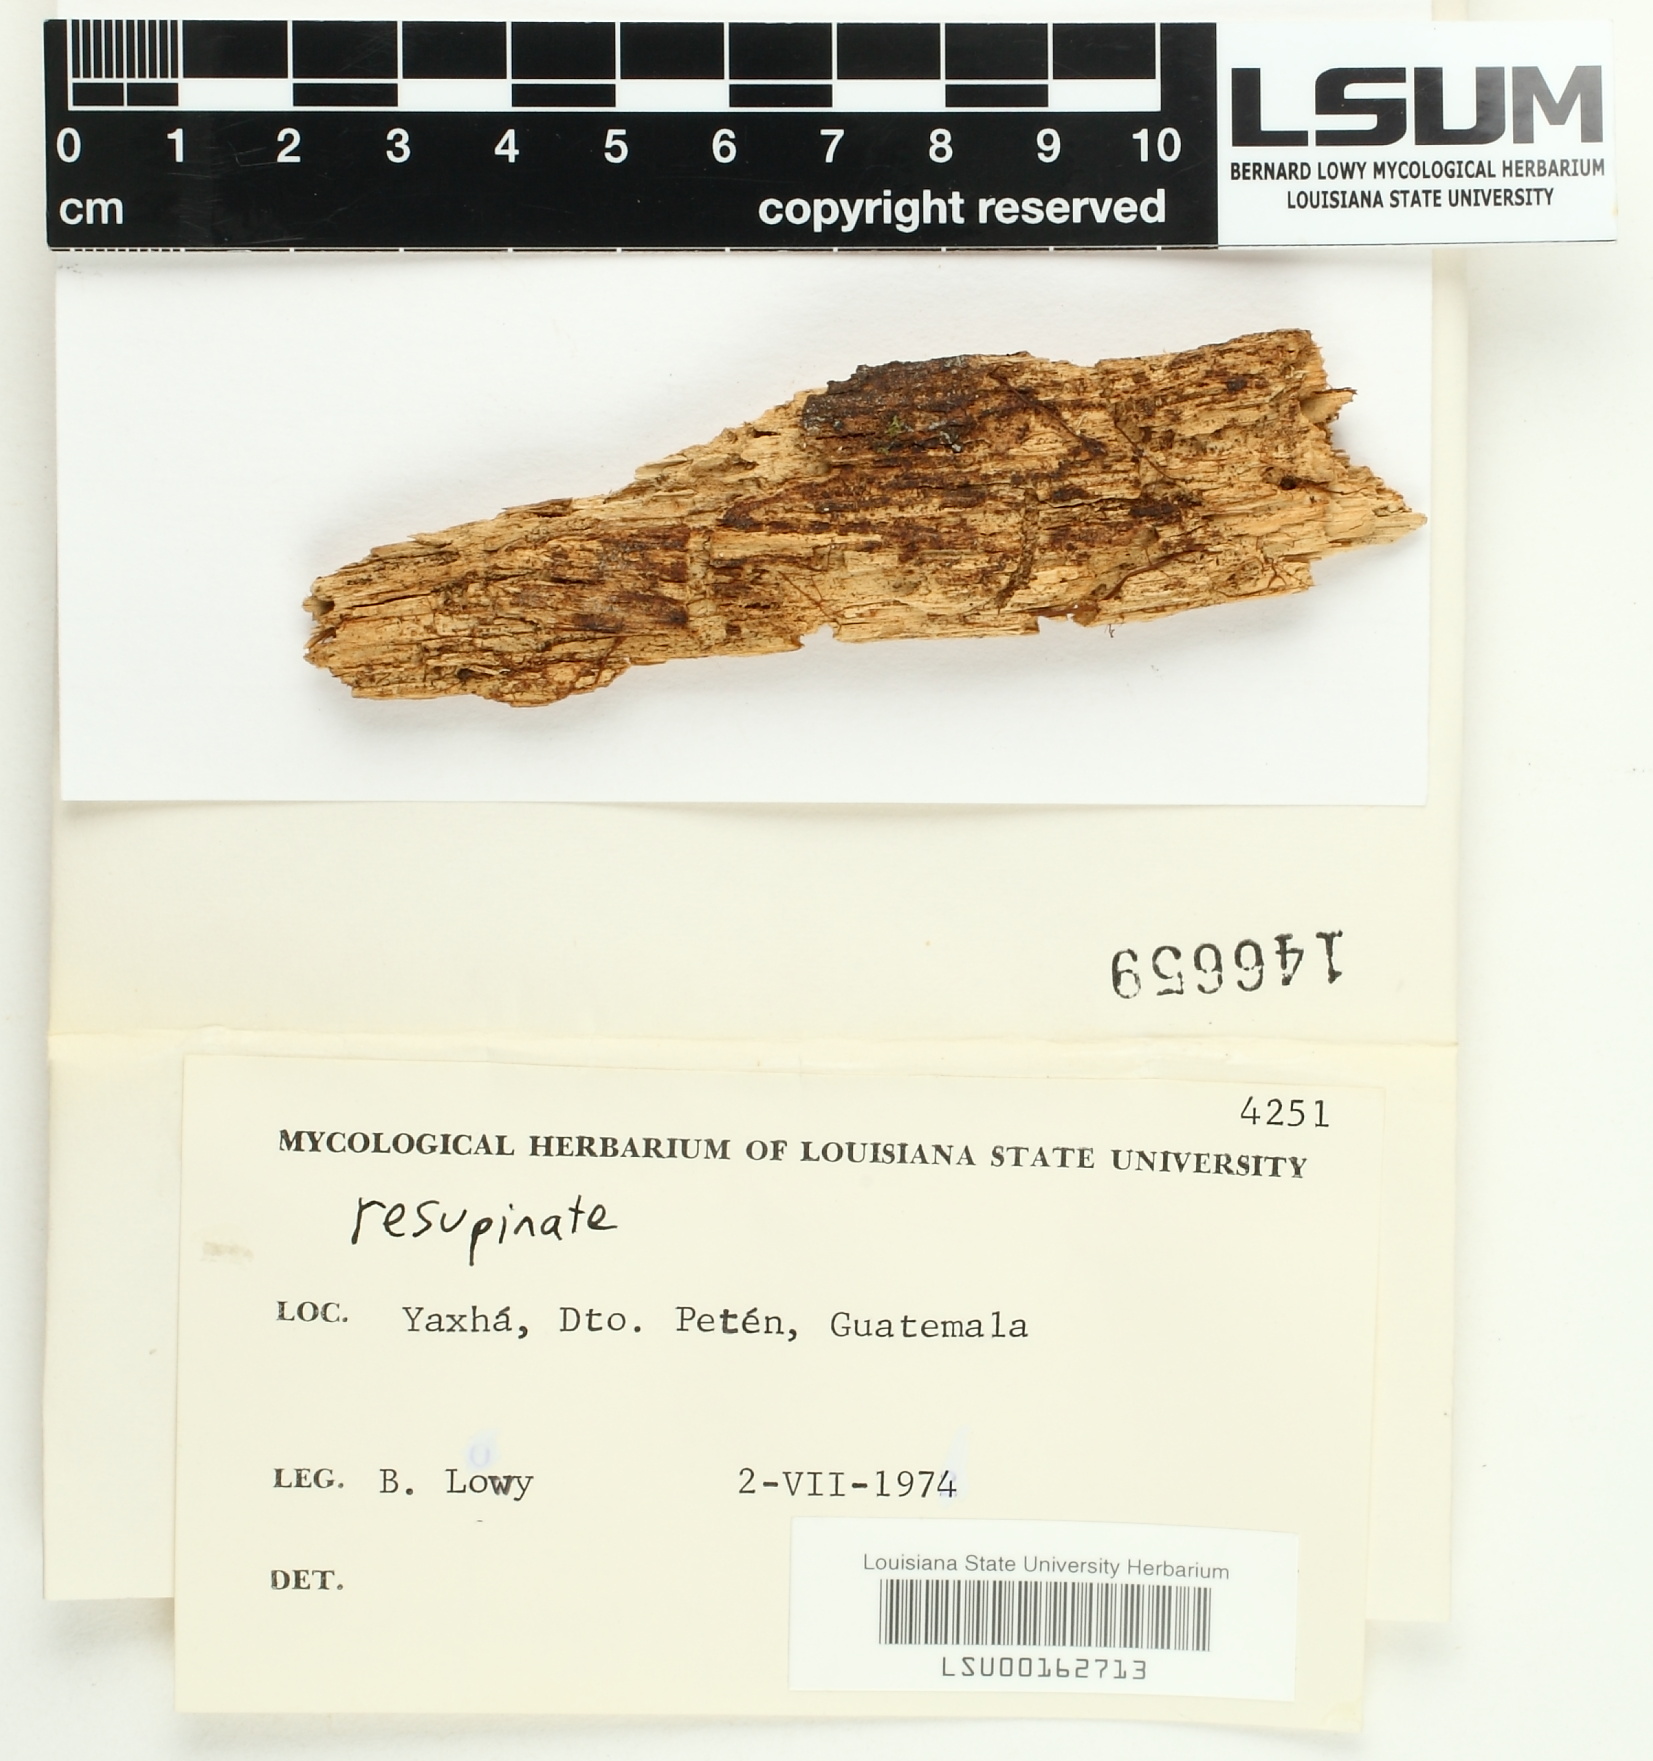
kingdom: Fungi
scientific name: Fungi
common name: Fungi
